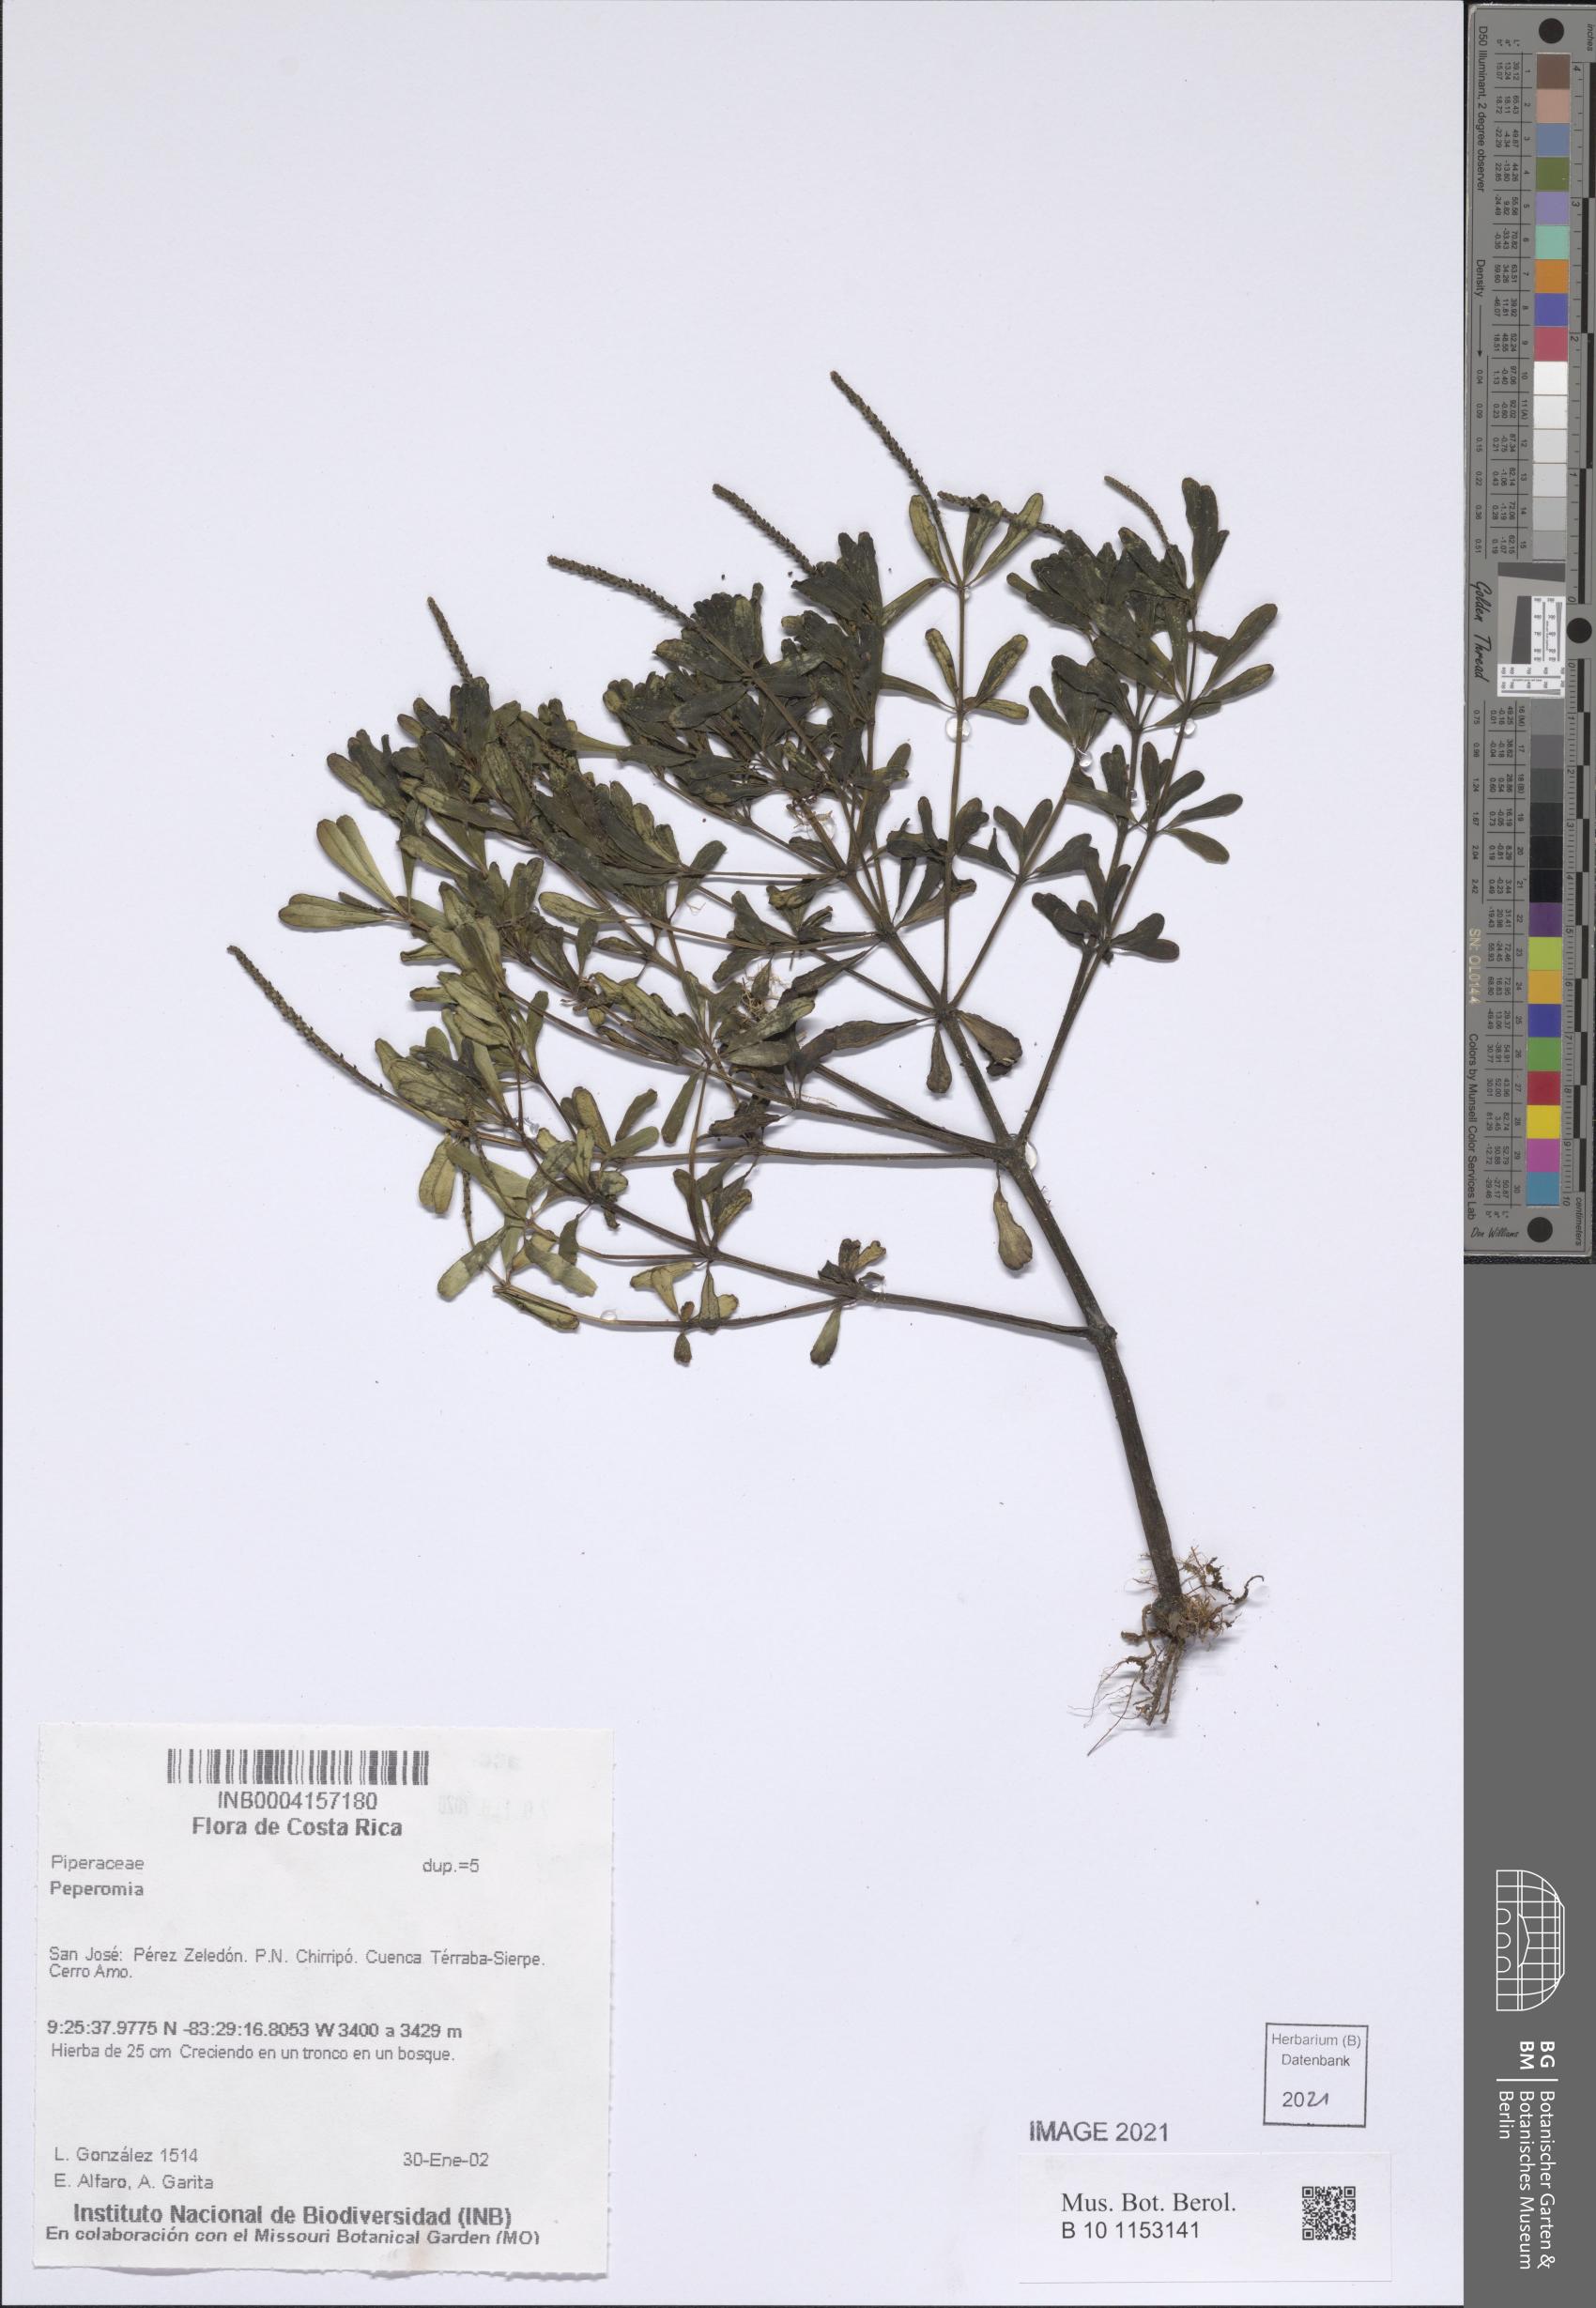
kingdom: Plantae
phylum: Tracheophyta
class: Magnoliopsida
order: Piperales
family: Piperaceae
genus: Peperomia
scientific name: Peperomia
